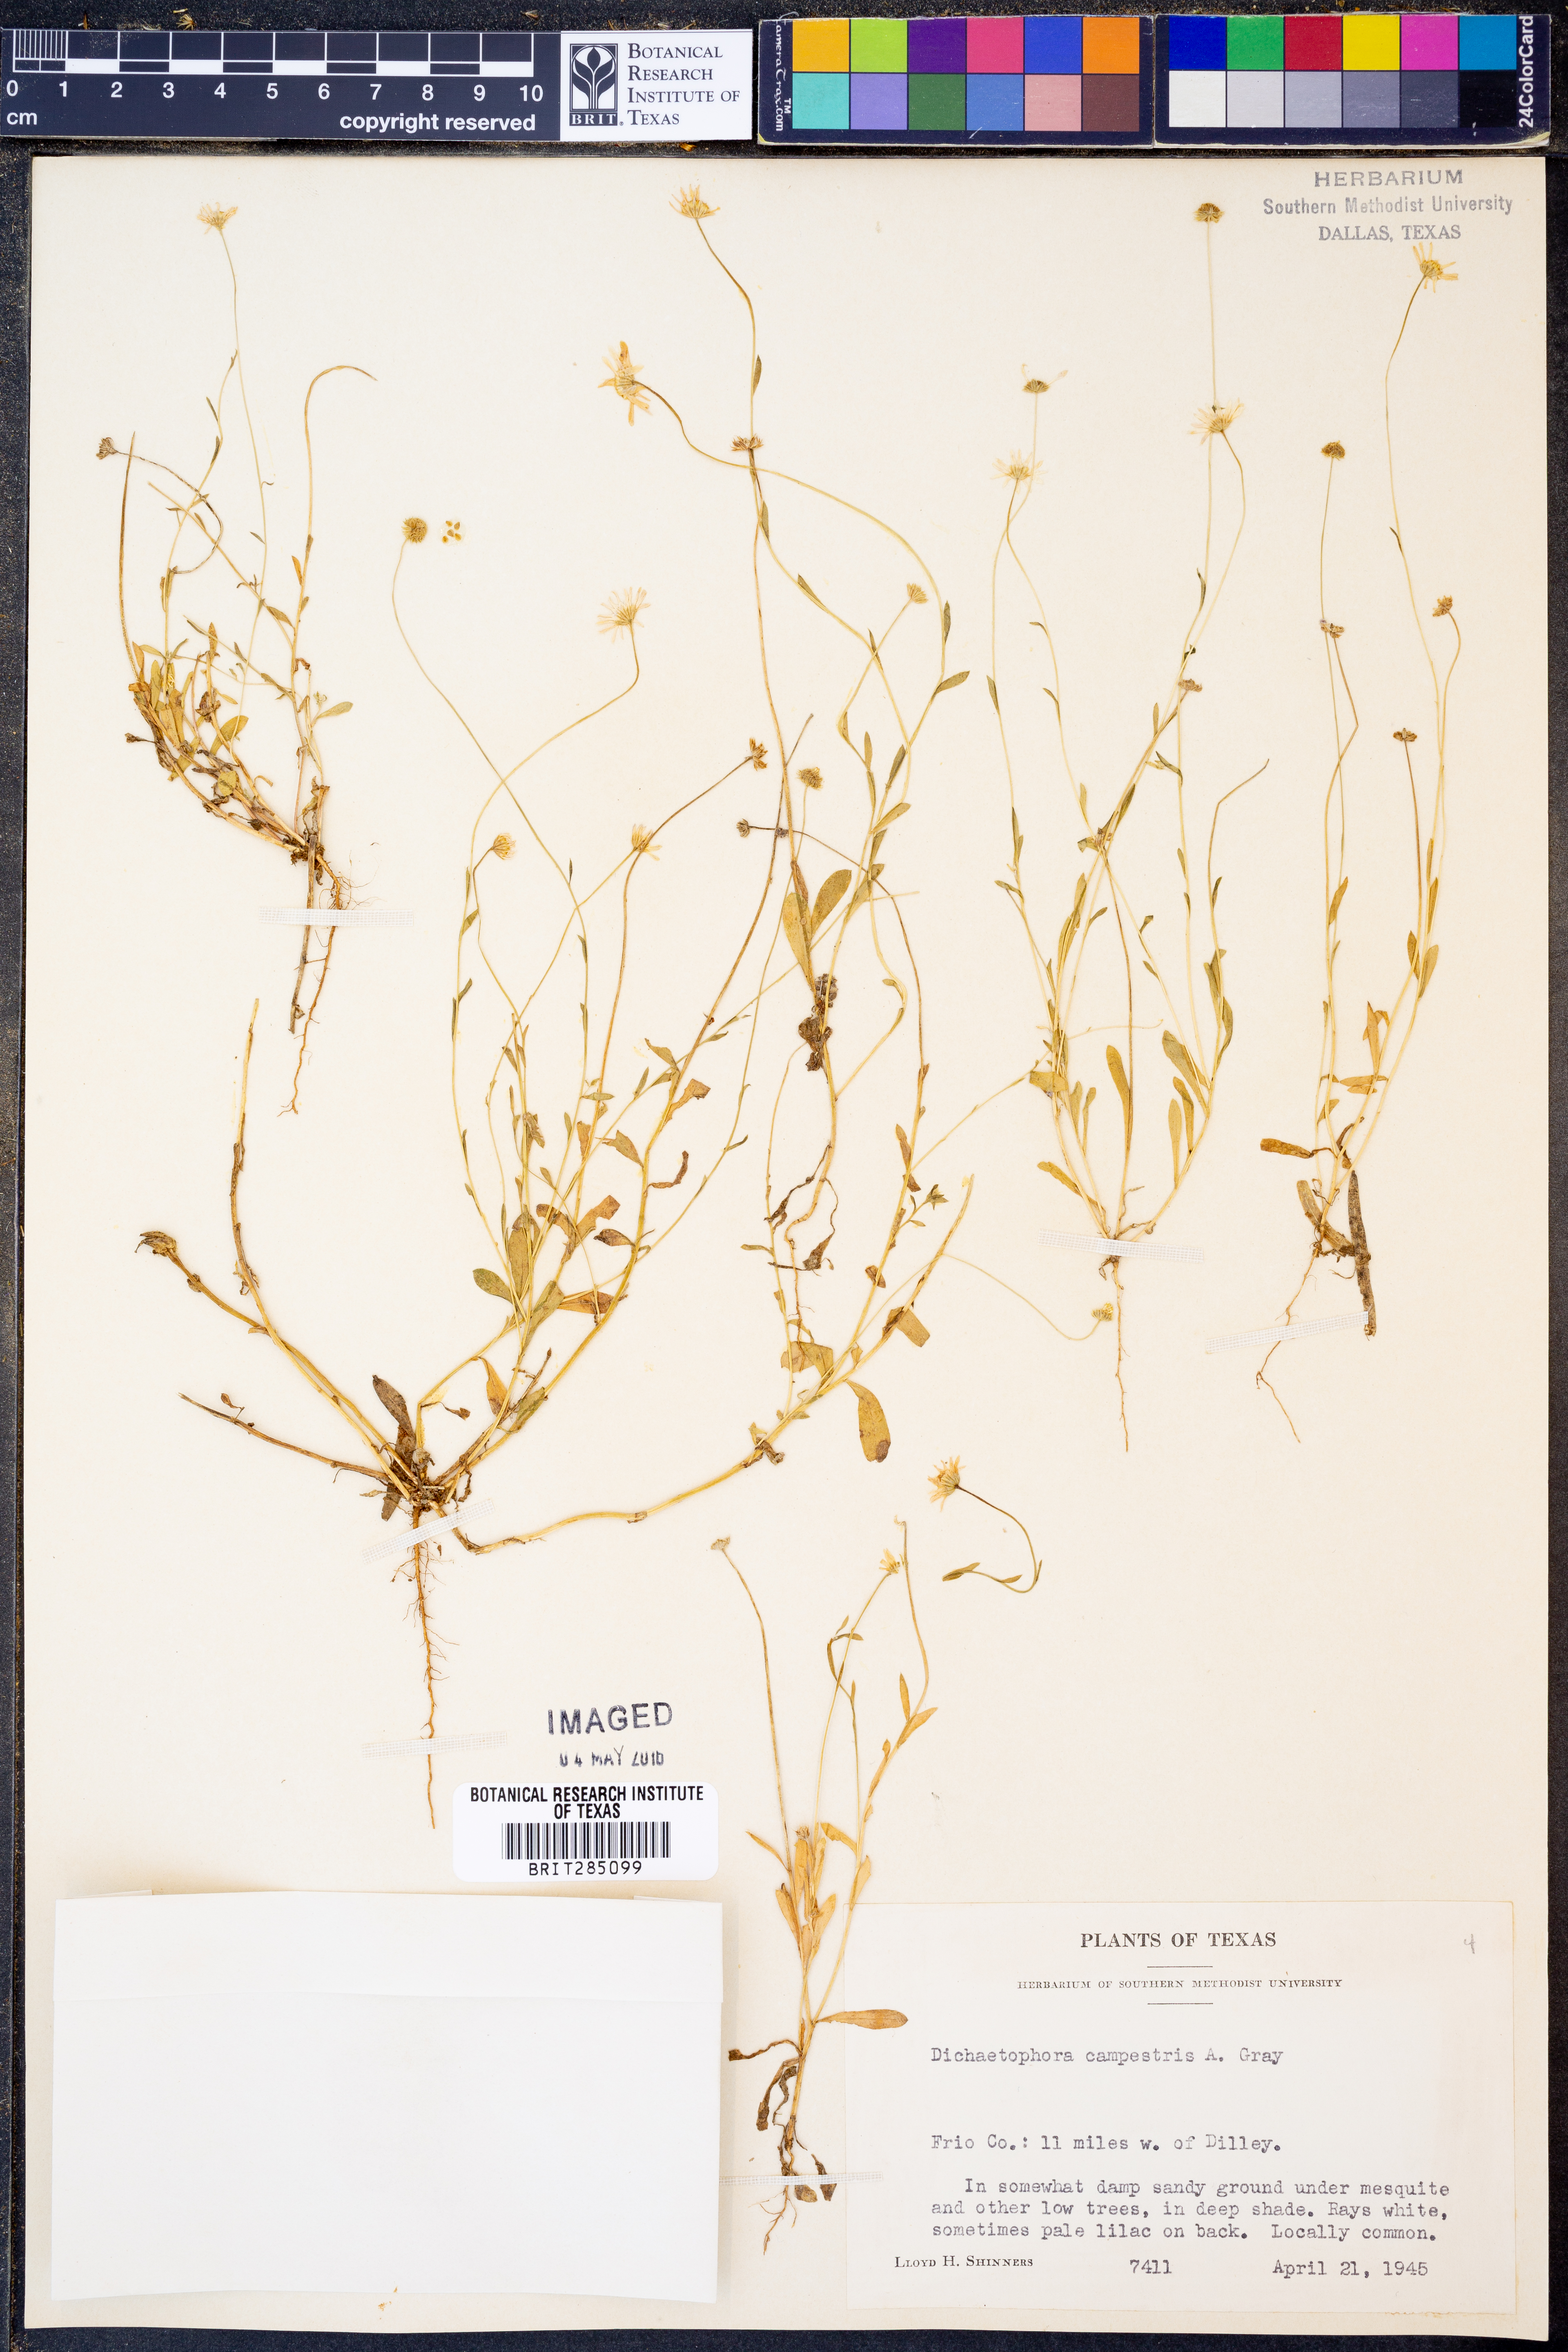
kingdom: Plantae
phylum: Tracheophyta
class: Magnoliopsida
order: Asterales
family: Asteraceae
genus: Dichaetophora
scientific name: Dichaetophora campestris
